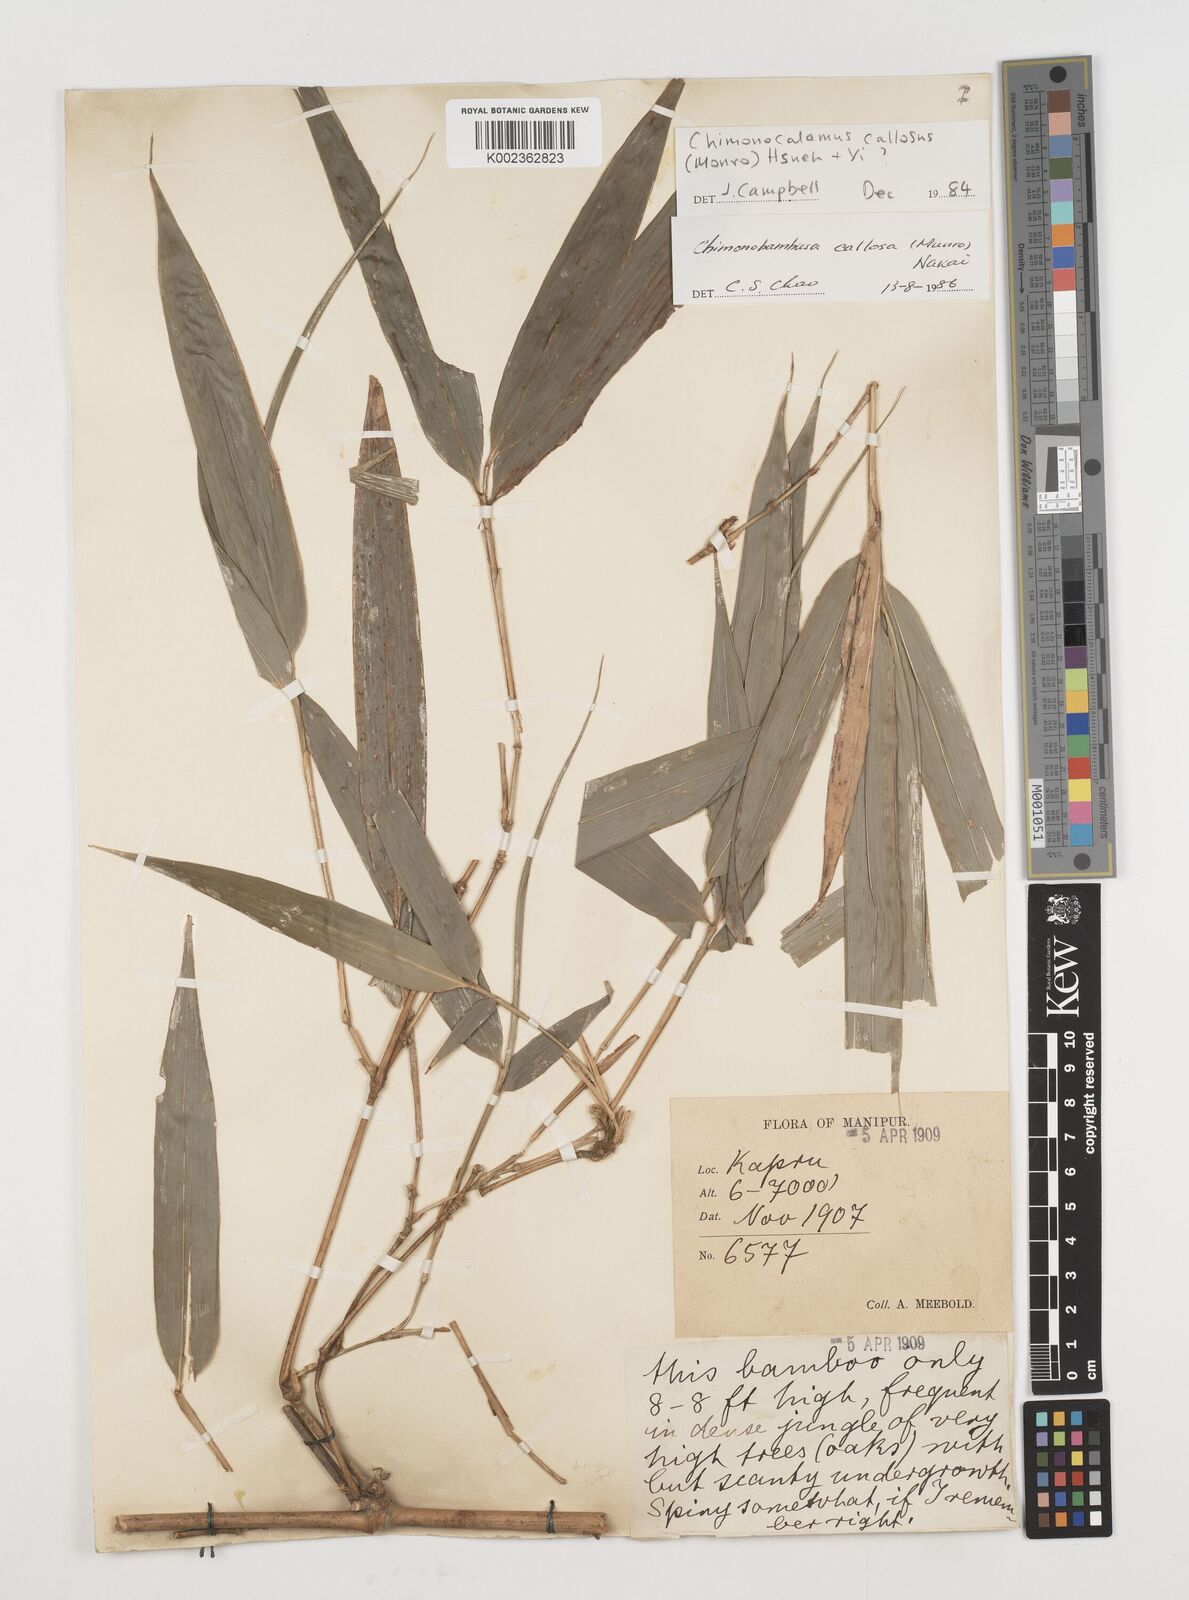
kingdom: Plantae
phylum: Tracheophyta
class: Liliopsida
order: Poales
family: Poaceae
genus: Chimonobambusa
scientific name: Chimonobambusa callosa
